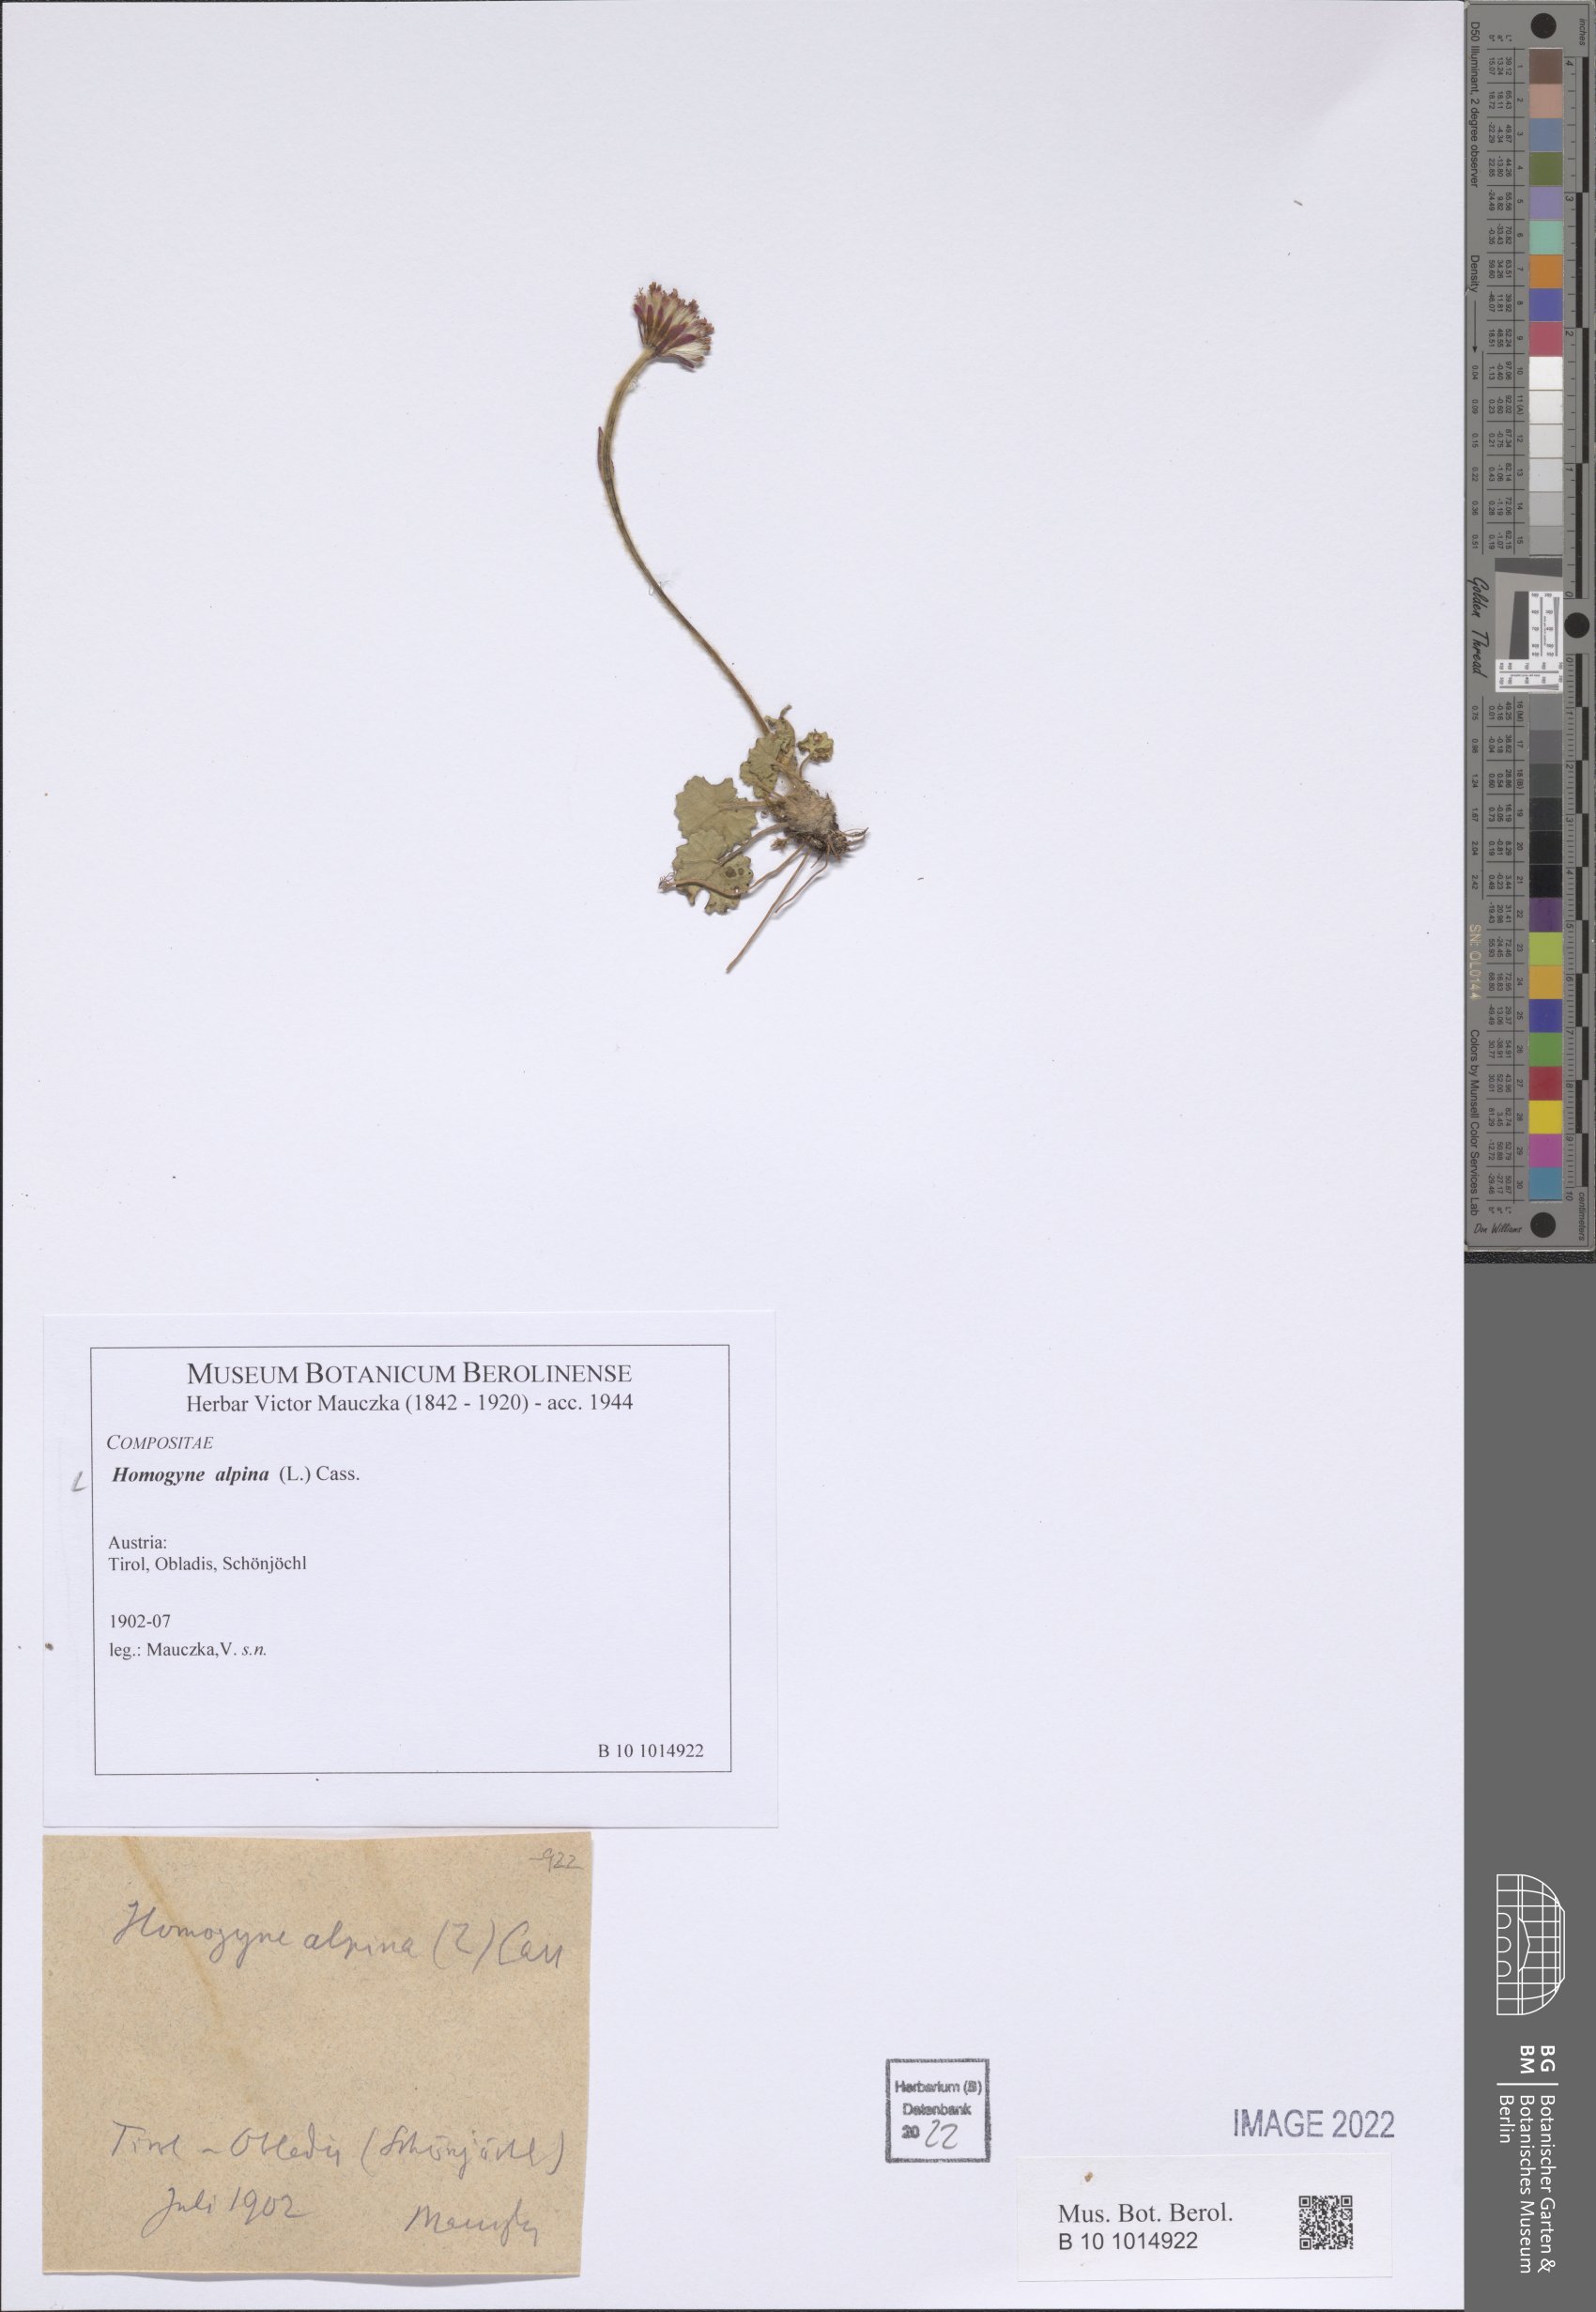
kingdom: Plantae
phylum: Tracheophyta
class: Magnoliopsida
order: Asterales
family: Asteraceae
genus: Homogyne
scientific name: Homogyne alpina
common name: Purple colt's-foot
